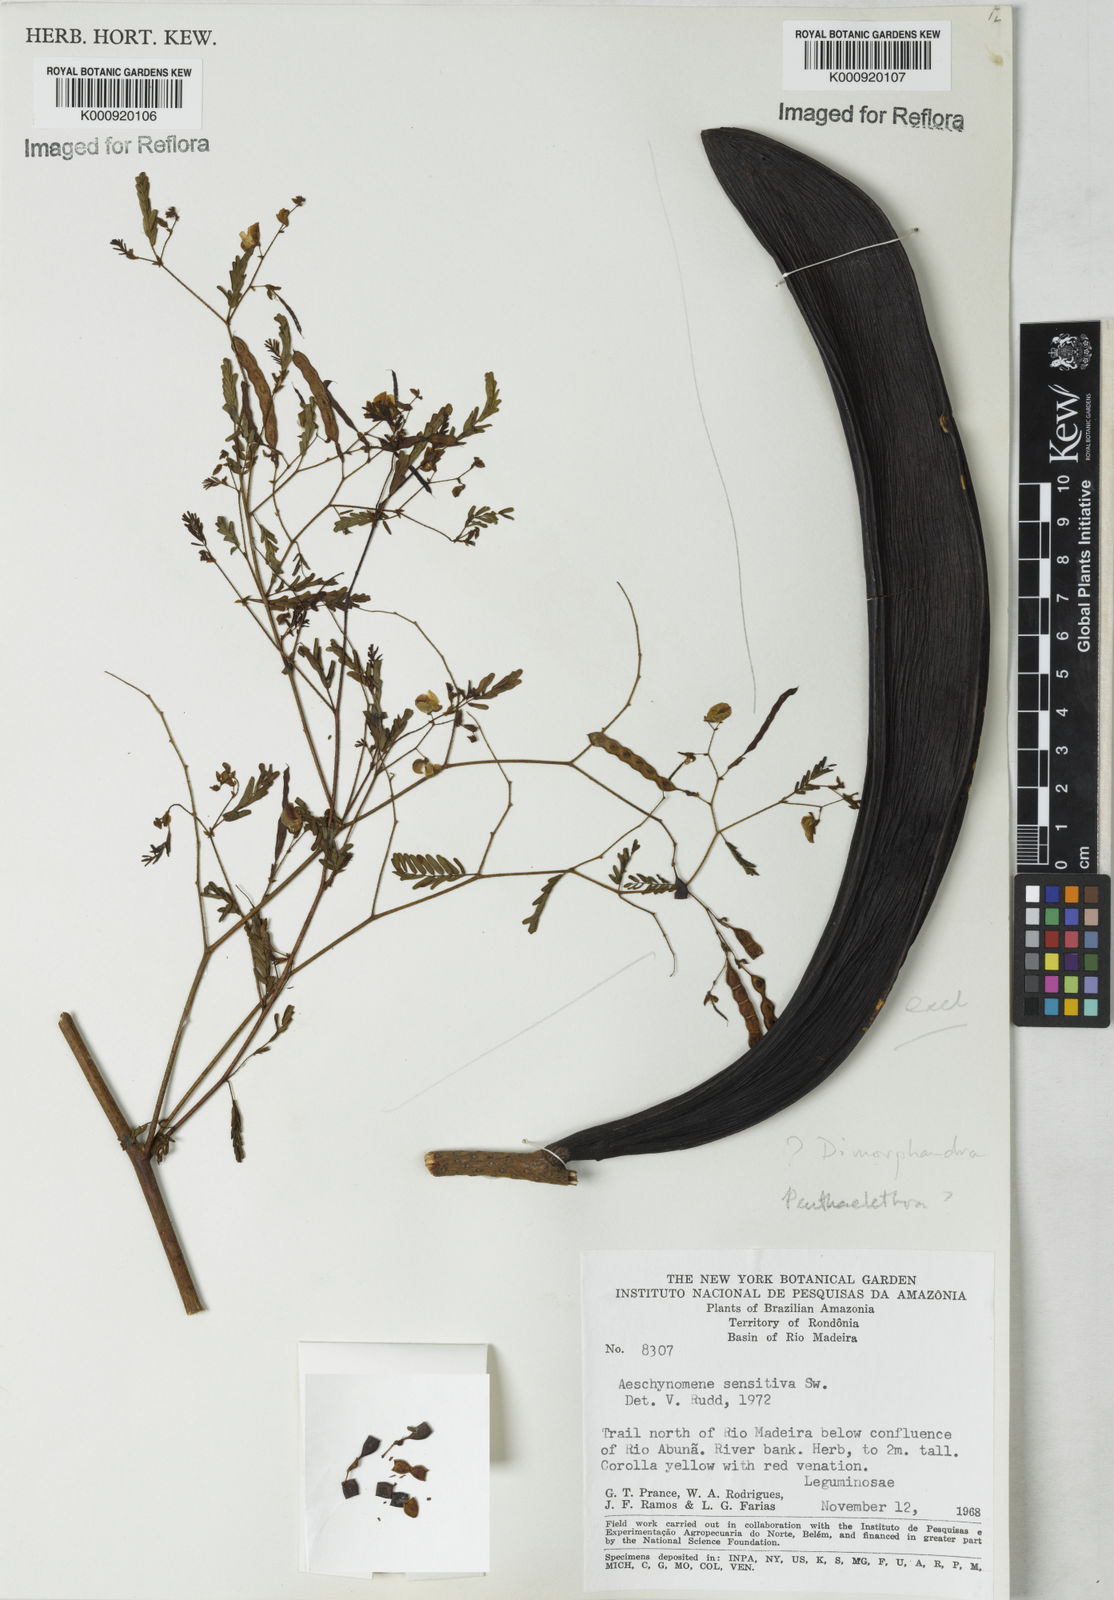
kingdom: Plantae
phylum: Tracheophyta
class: Magnoliopsida
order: Fabales
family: Fabaceae
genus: Aeschynomene
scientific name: Aeschynomene sensitiva
